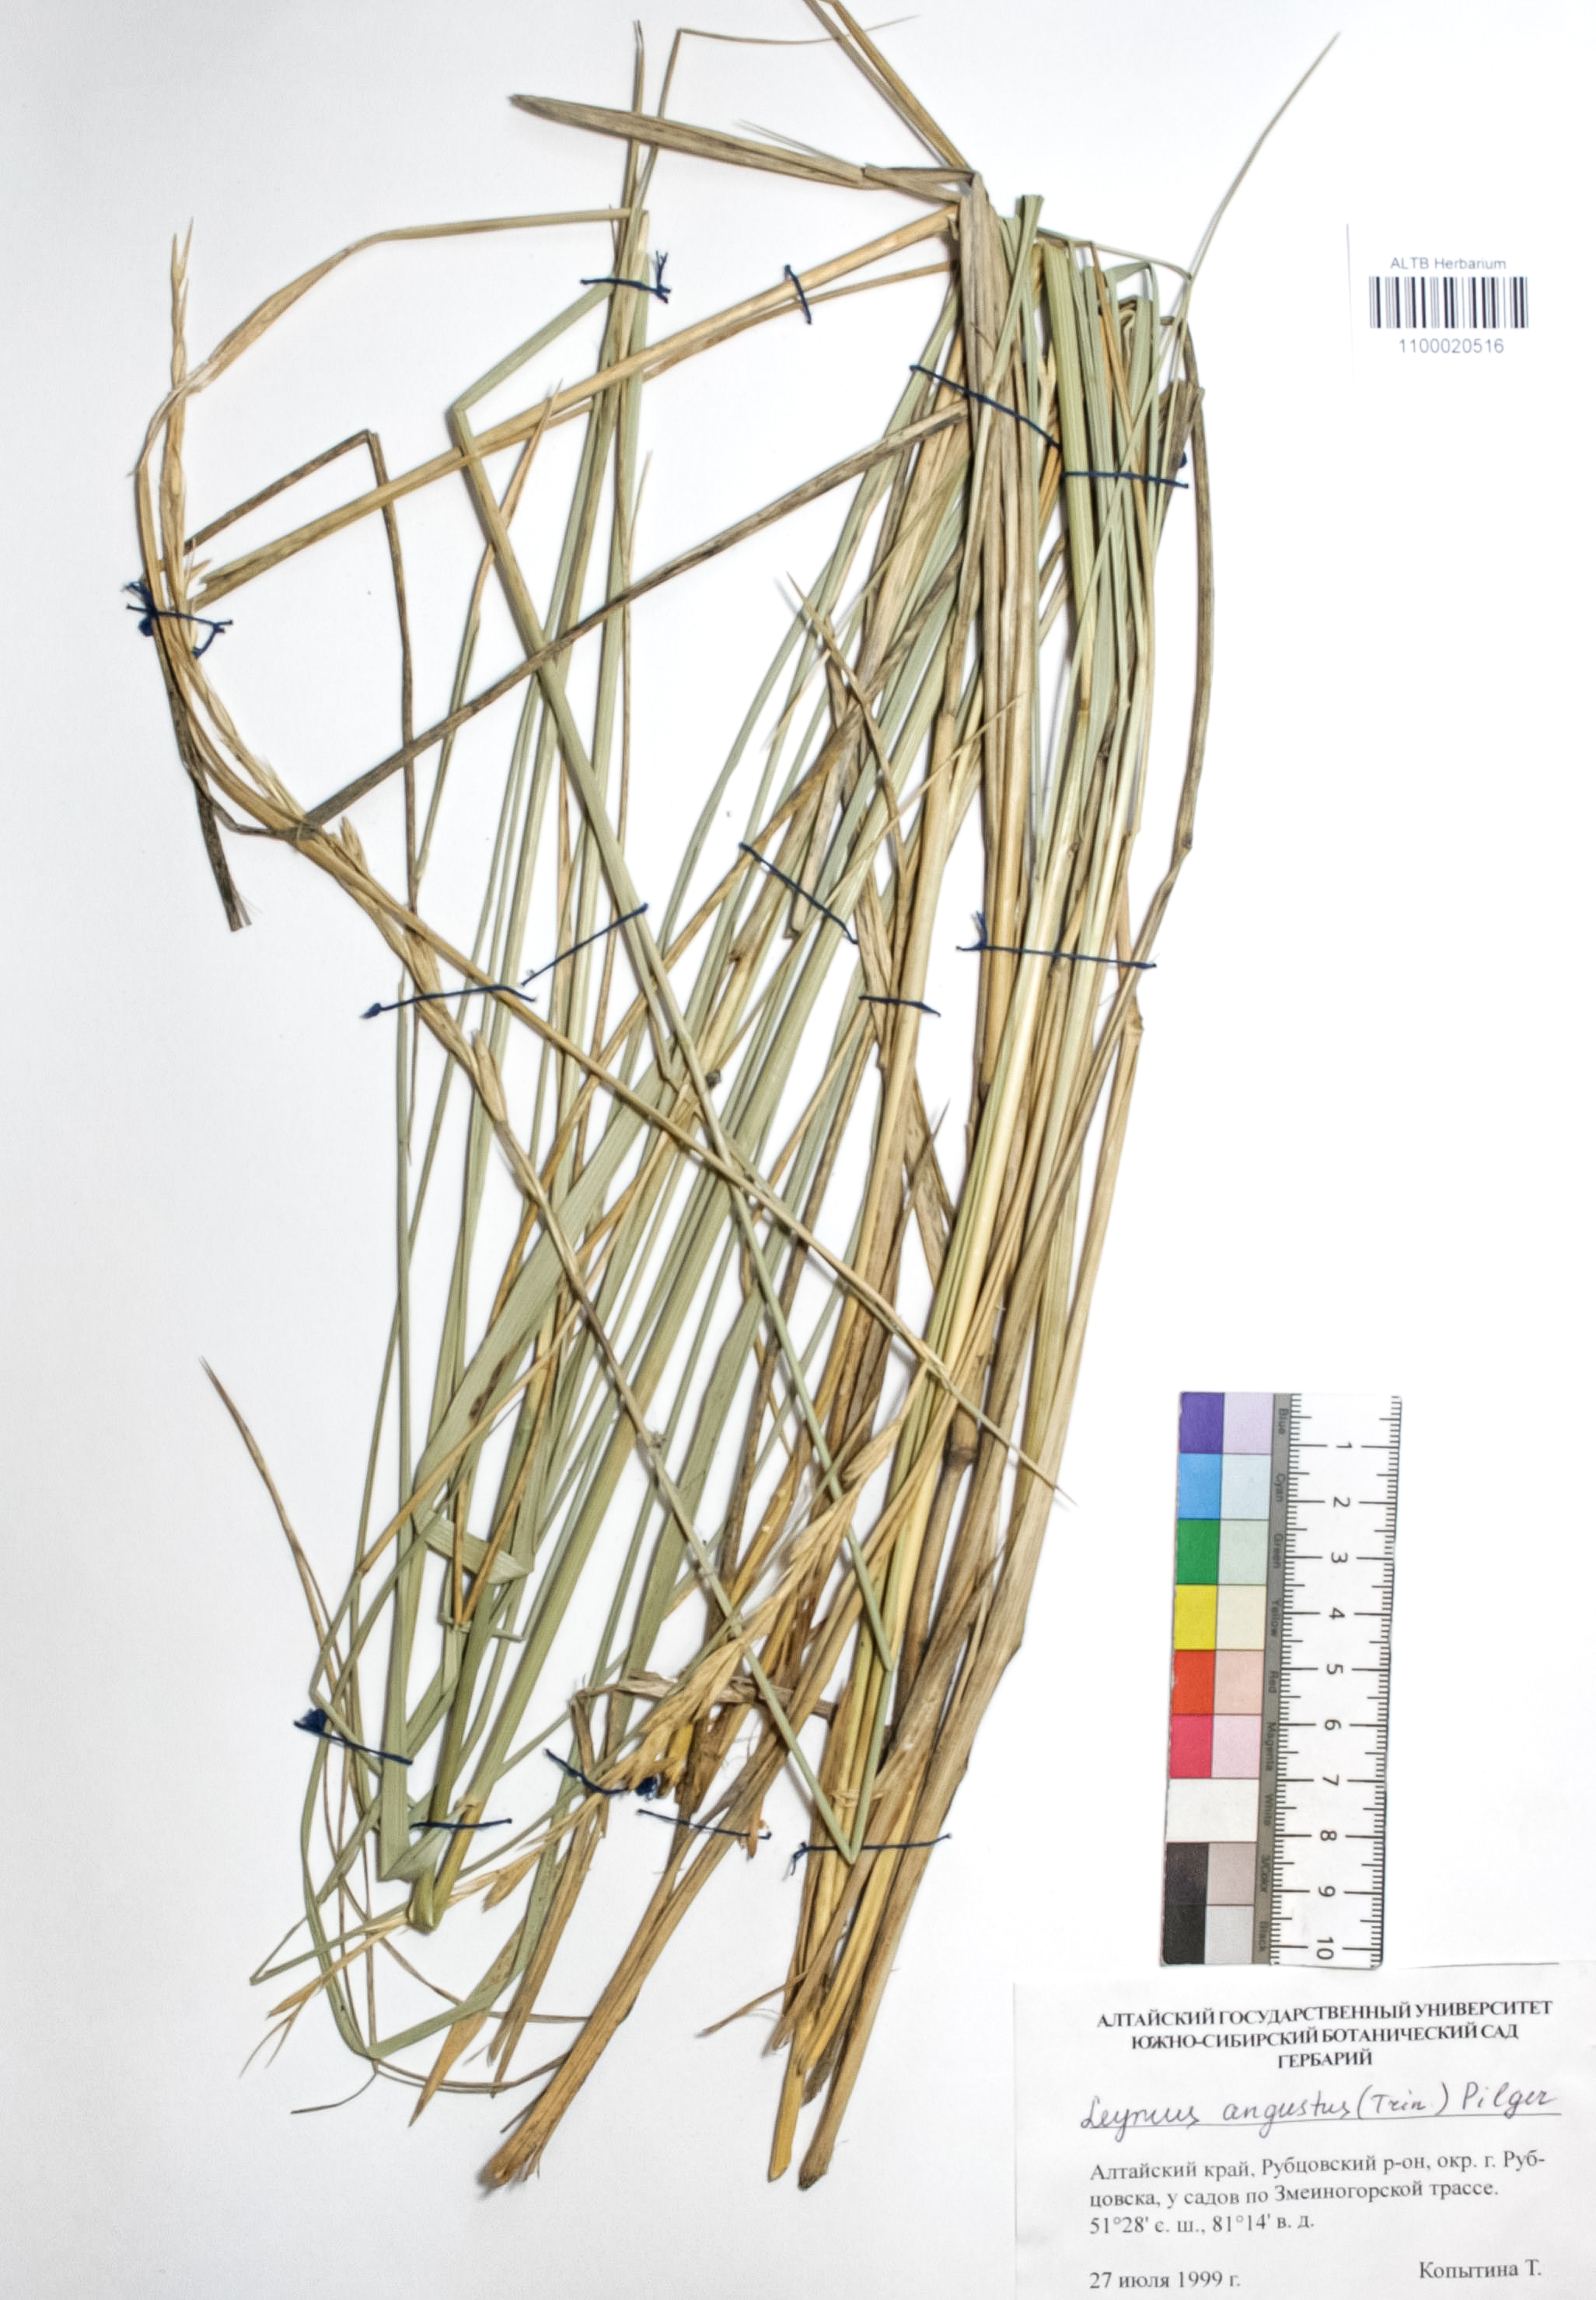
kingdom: Plantae
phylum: Tracheophyta
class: Liliopsida
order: Poales
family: Poaceae
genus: Leymus
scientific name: Leymus angustus
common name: Altai wildrye
